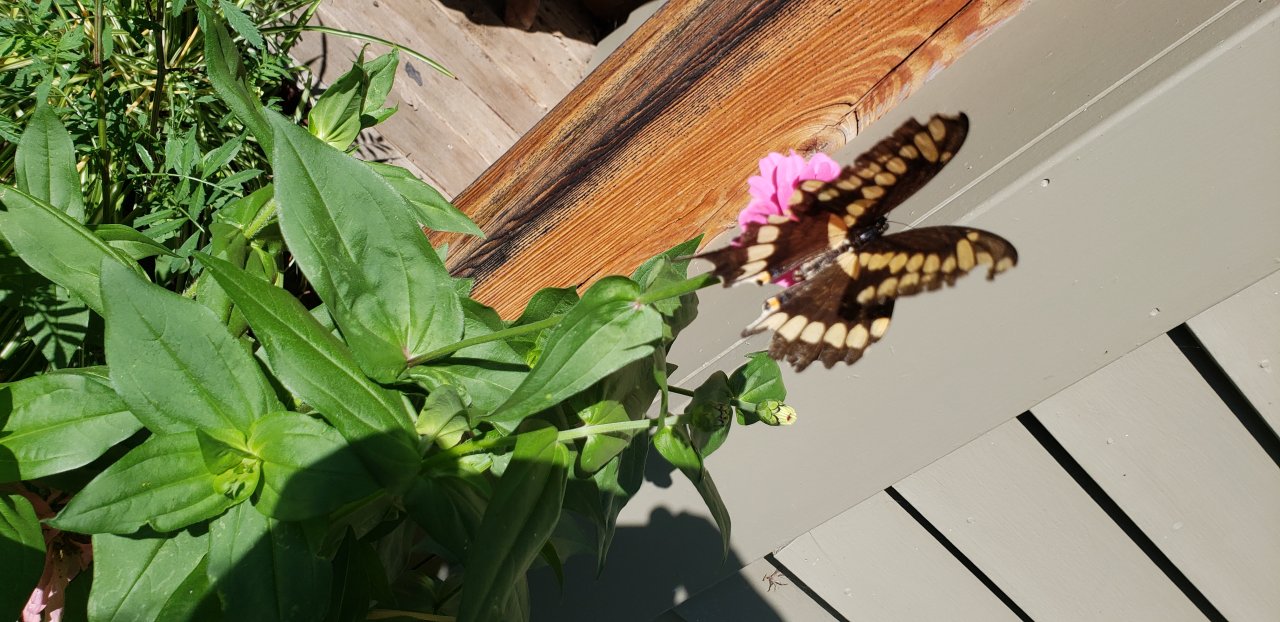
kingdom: Animalia
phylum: Arthropoda
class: Insecta
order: Lepidoptera
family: Papilionidae
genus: Papilio
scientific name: Papilio cresphontes
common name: Eastern Giant Swallowtail
